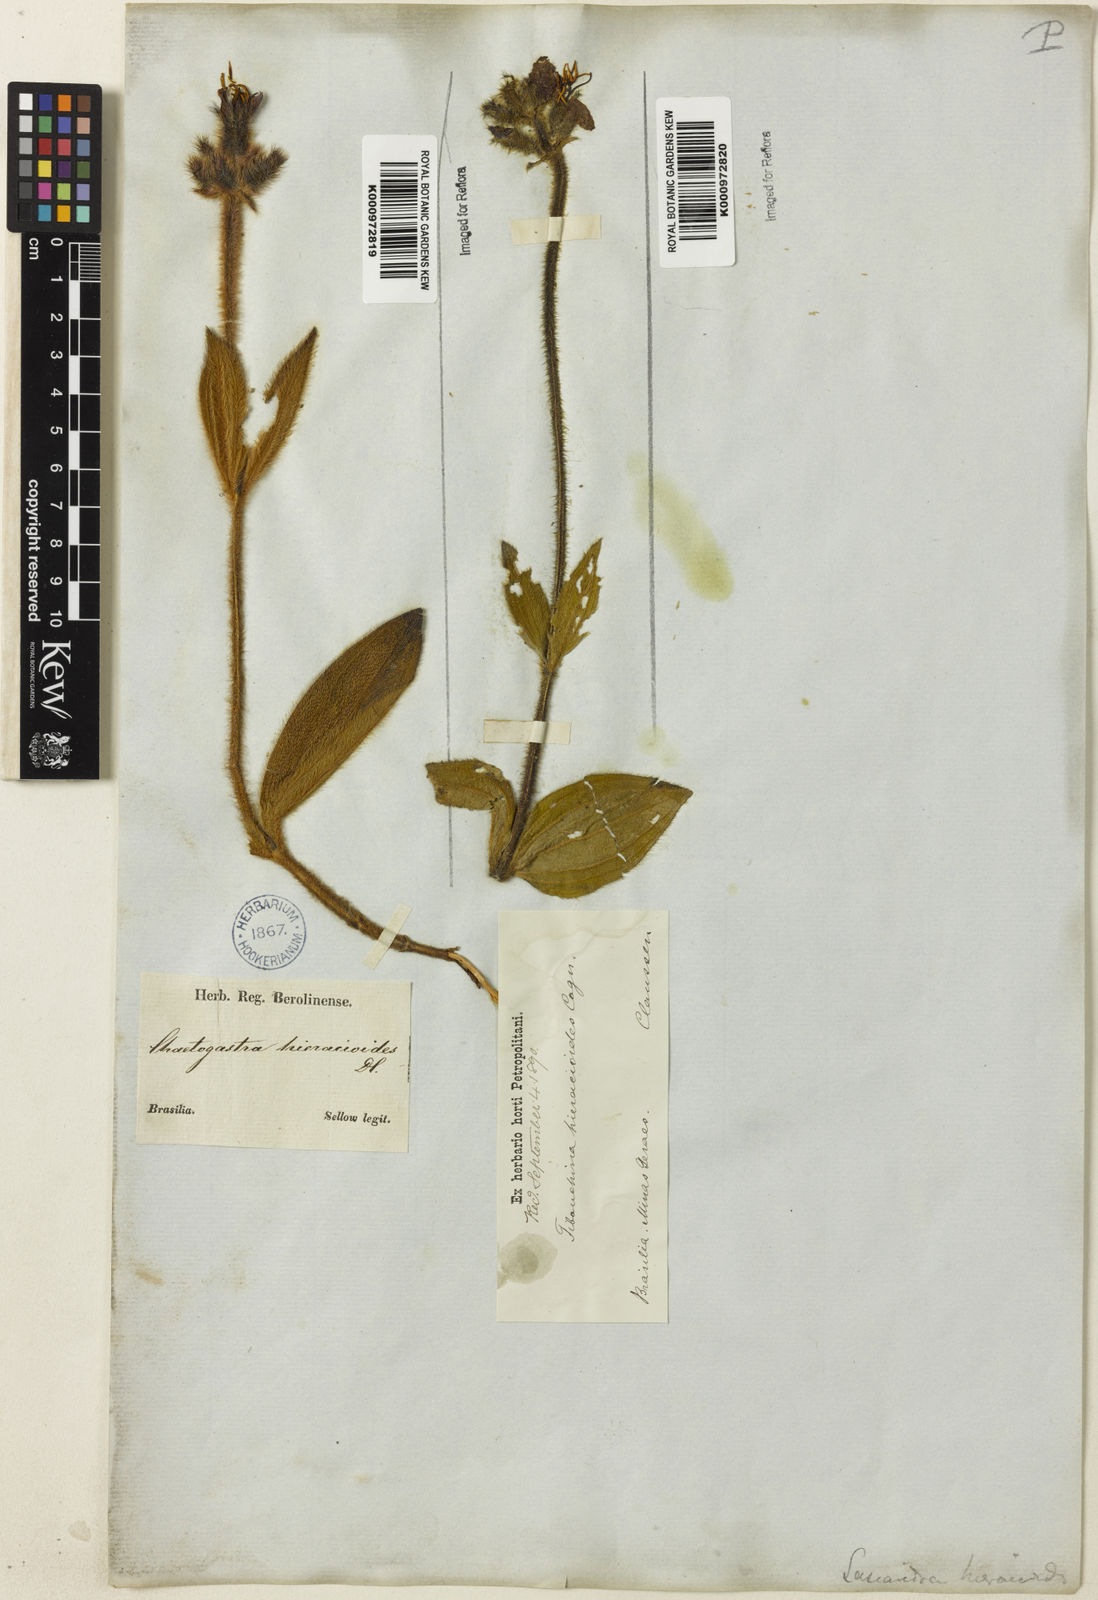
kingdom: Plantae
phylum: Tracheophyta
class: Magnoliopsida
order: Myrtales
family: Melastomataceae
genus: Chaetogastra
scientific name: Chaetogastra hieracioides
